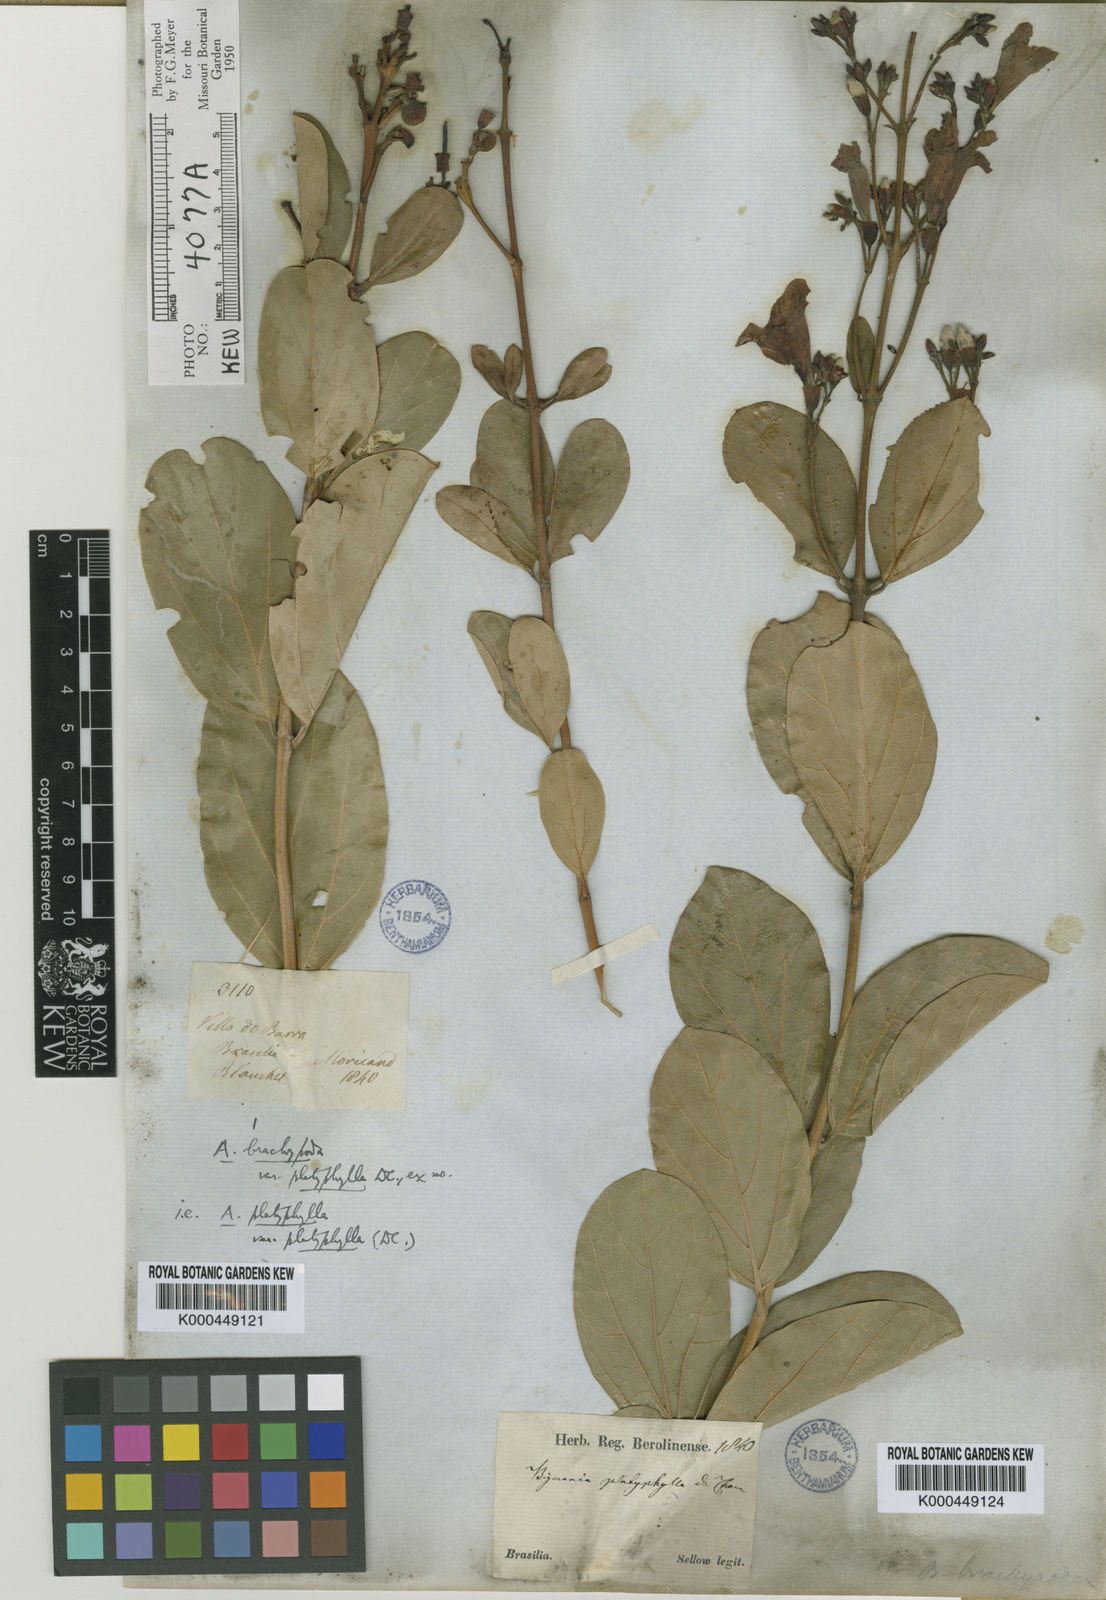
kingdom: Plantae
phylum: Tracheophyta
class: Magnoliopsida
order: Lamiales
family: Bignoniaceae
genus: Fridericia
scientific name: Fridericia platyphylla
